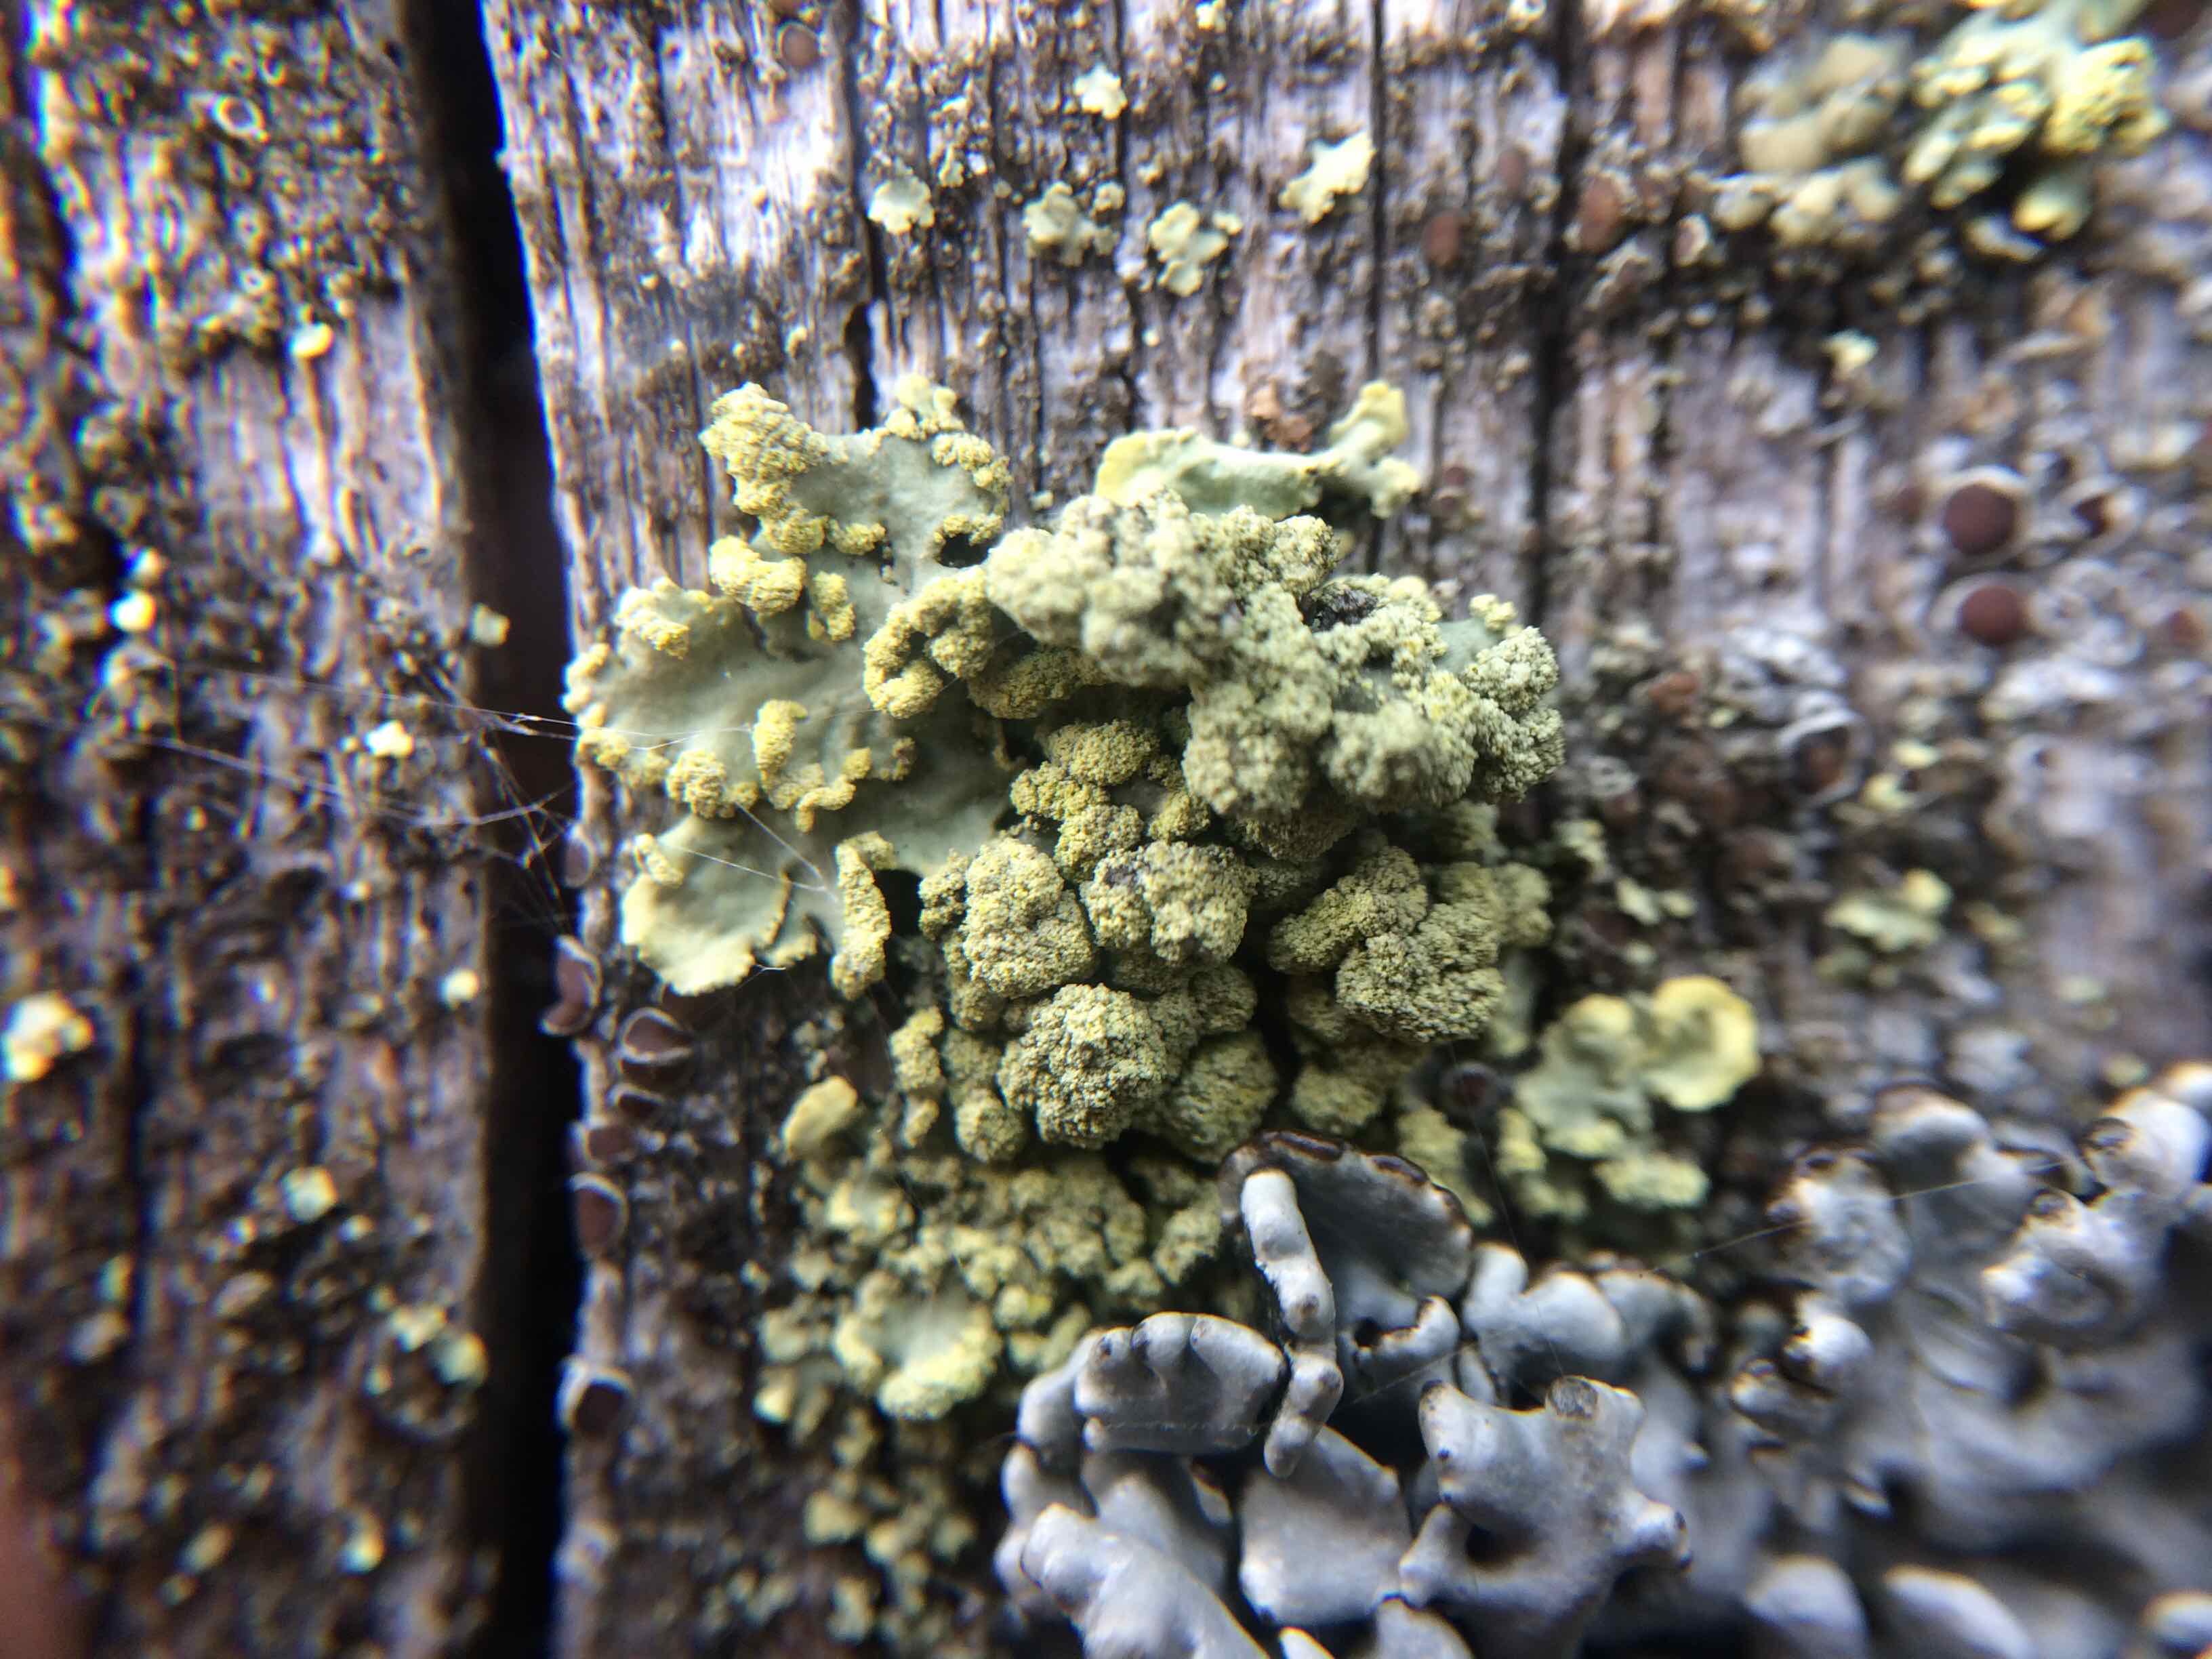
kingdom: Fungi
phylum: Ascomycota
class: Lecanoromycetes
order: Lecanorales
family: Parmeliaceae
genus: Vulpicida
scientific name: Vulpicida pinastri
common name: gul kruslav
